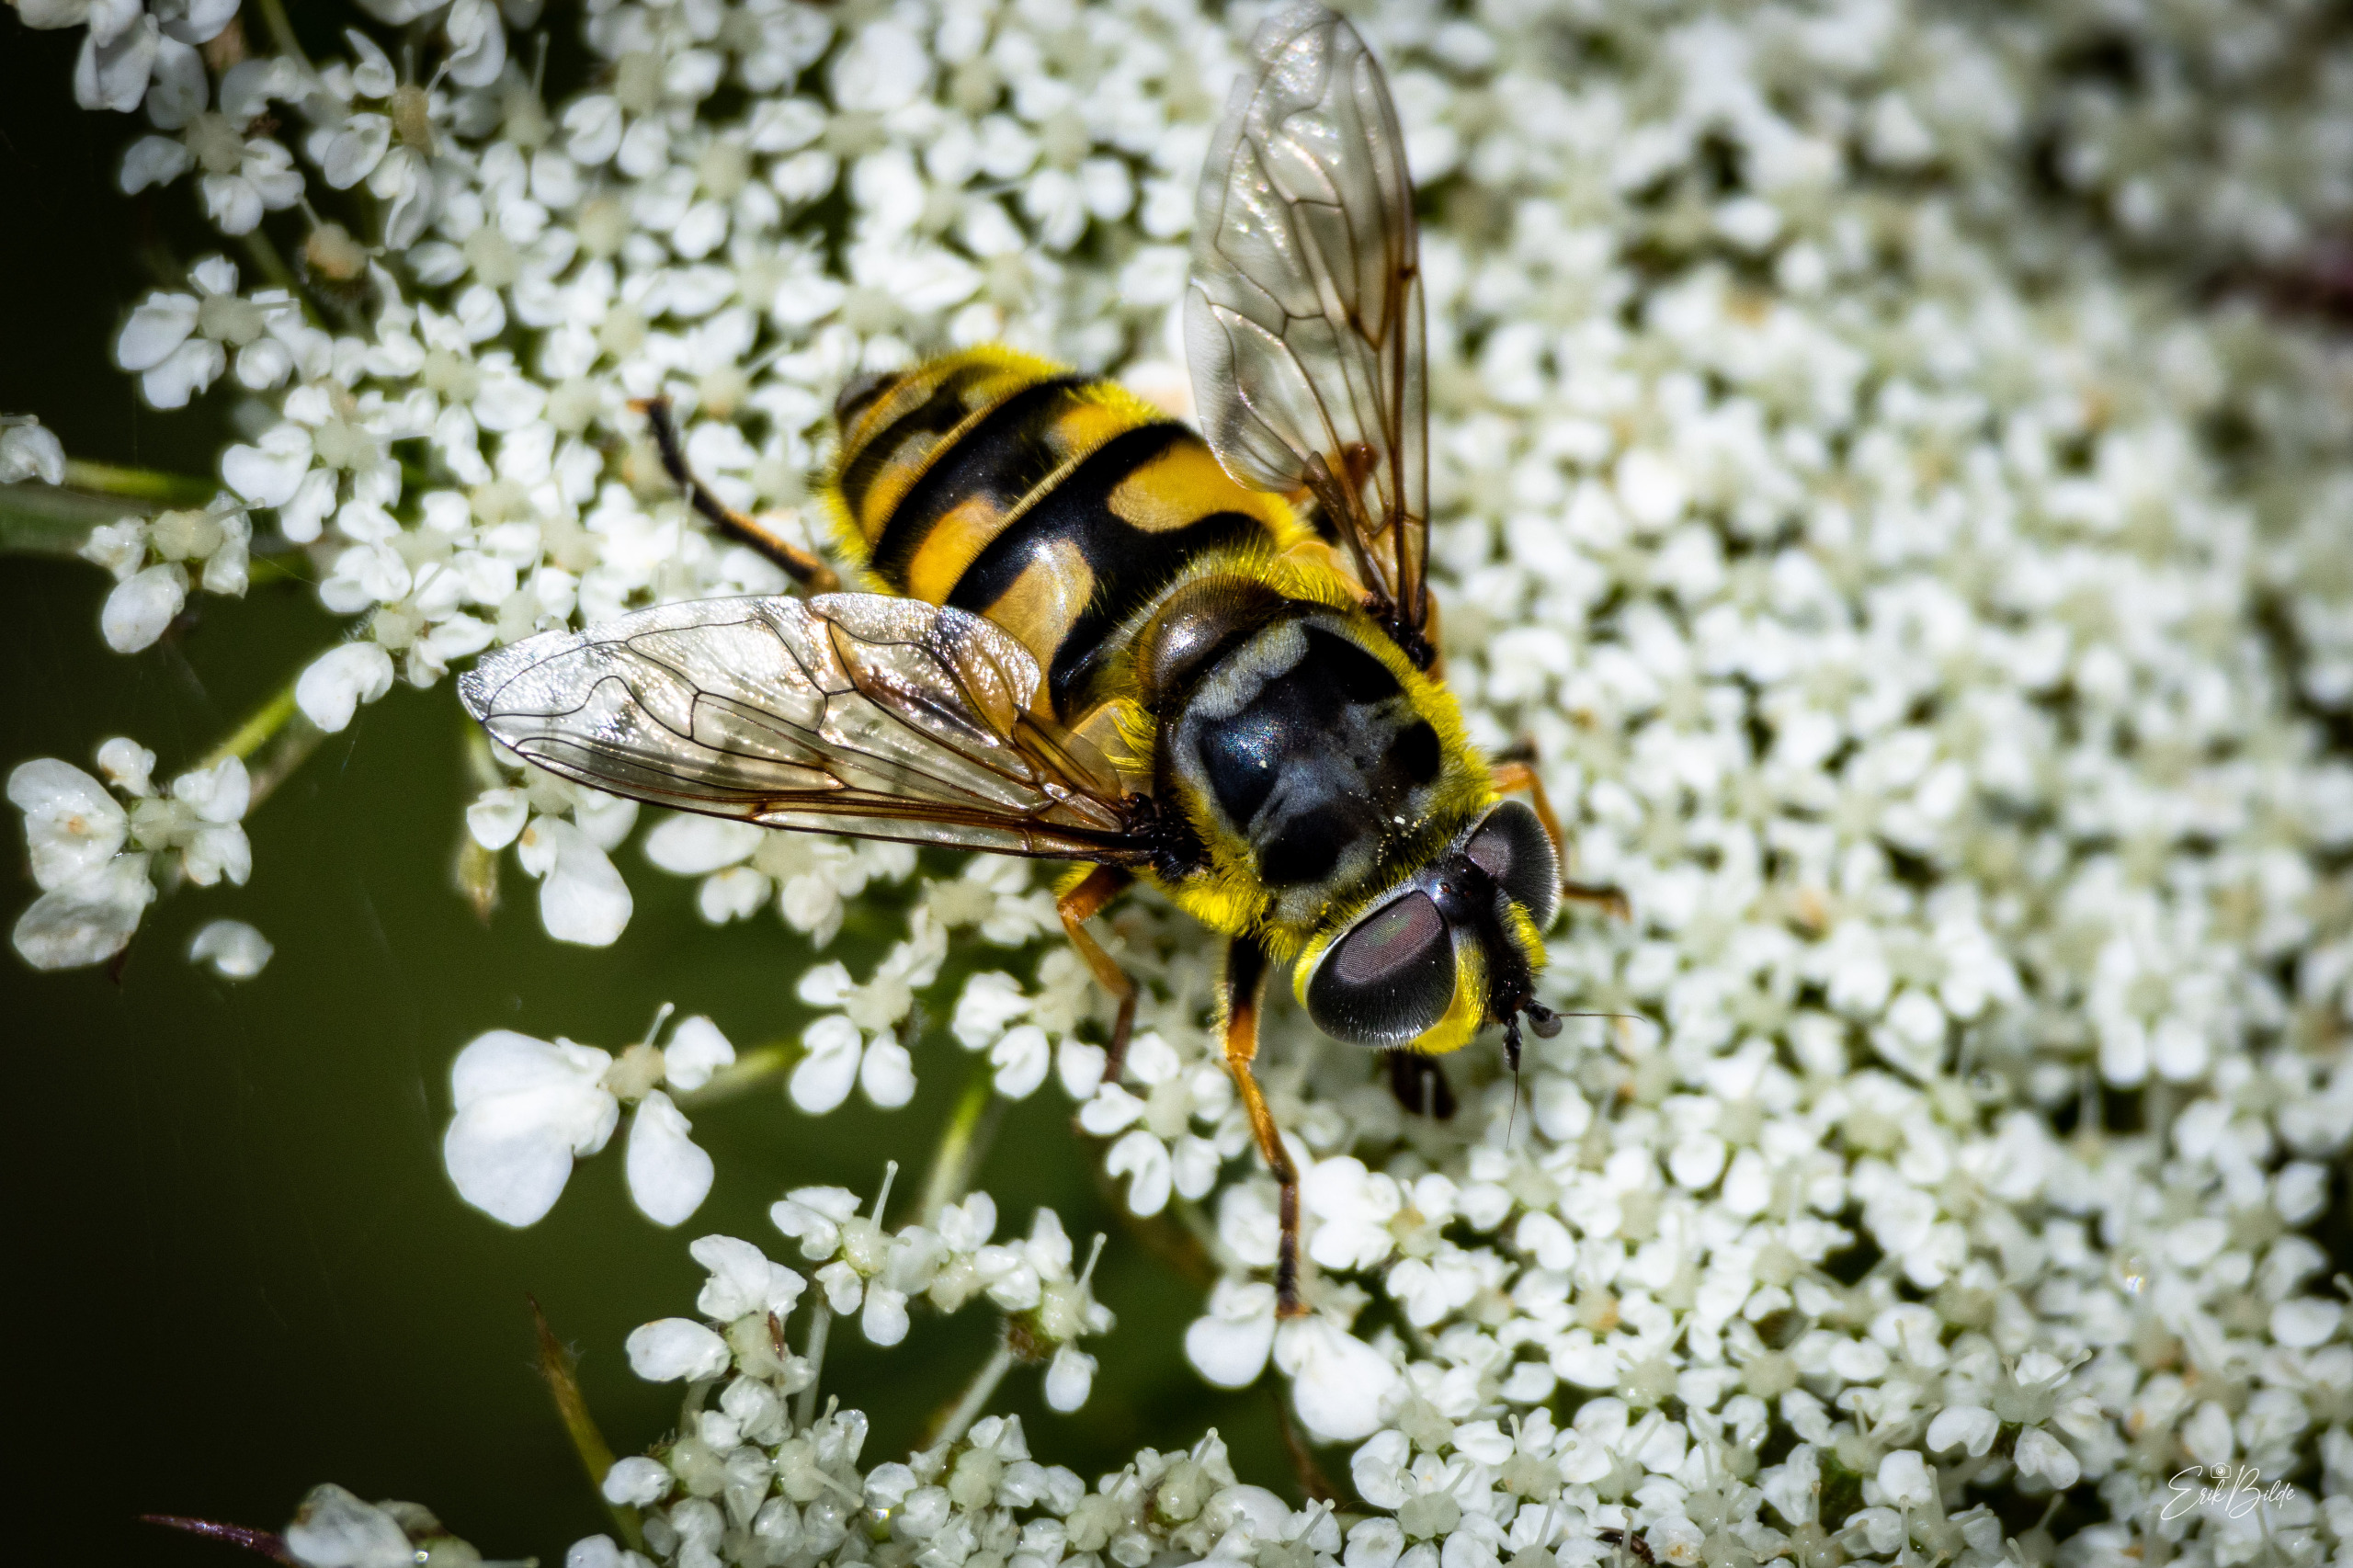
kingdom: Animalia
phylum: Arthropoda
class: Insecta
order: Diptera
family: Syrphidae
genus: Myathropa
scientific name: Myathropa florea
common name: Dødningehoved-svirreflue
